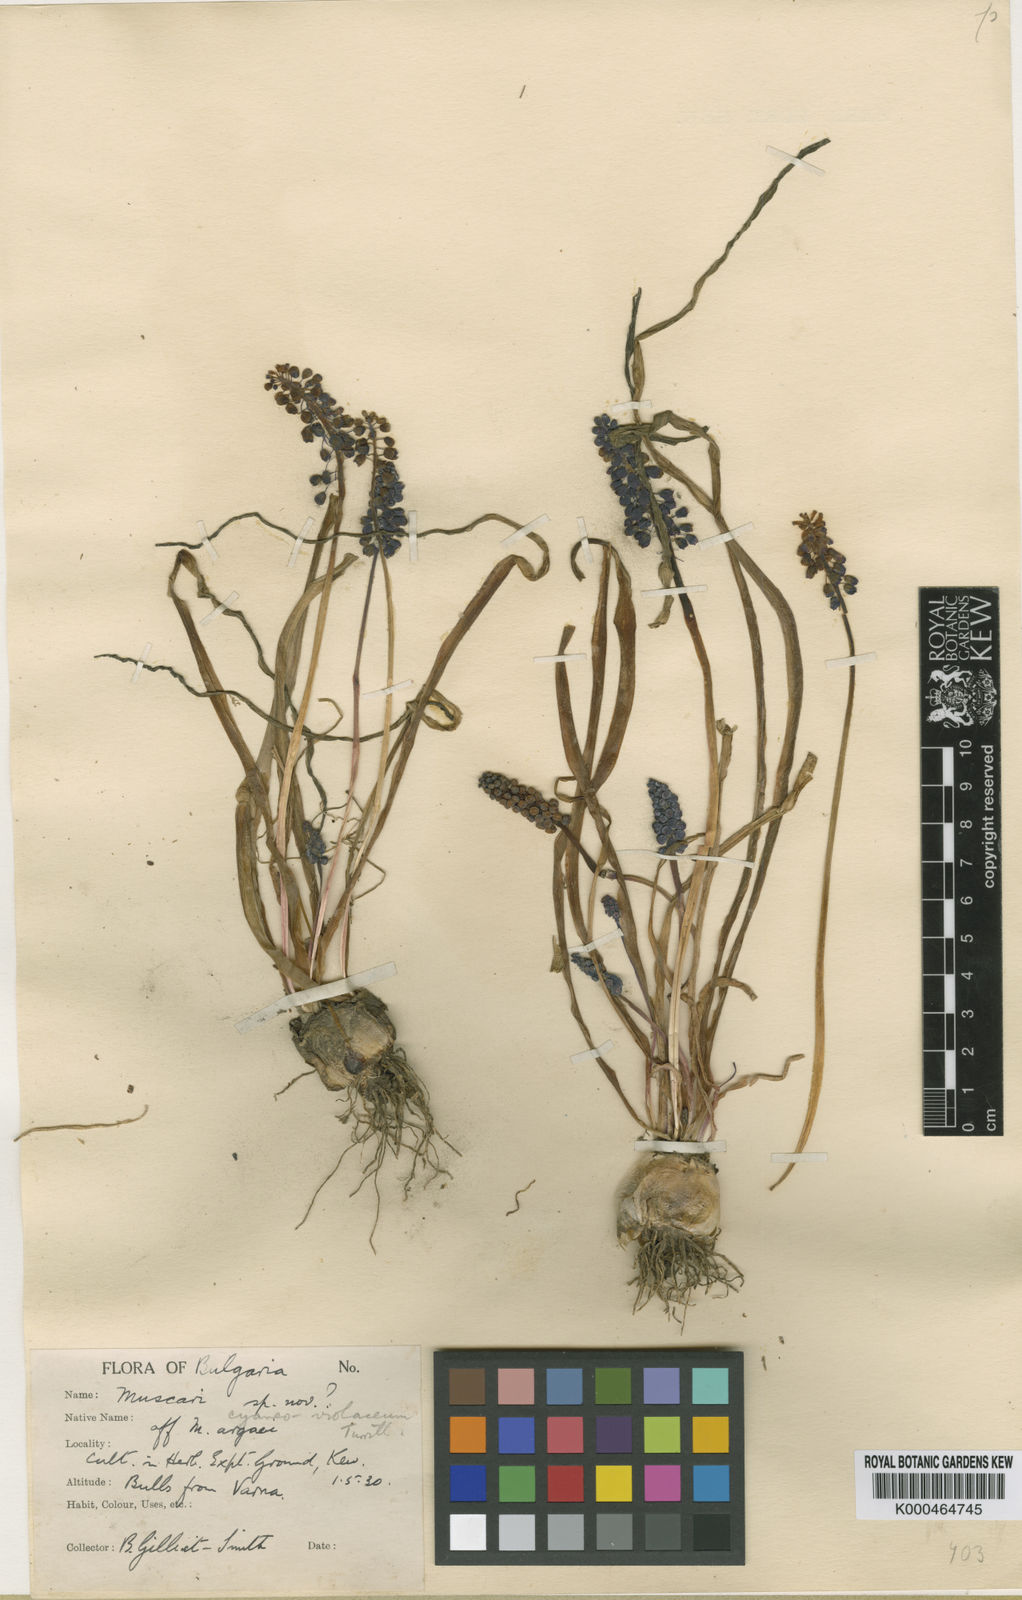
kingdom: Plantae
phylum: Tracheophyta
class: Liliopsida
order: Asparagales
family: Asparagaceae
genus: Muscari
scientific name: Muscari
